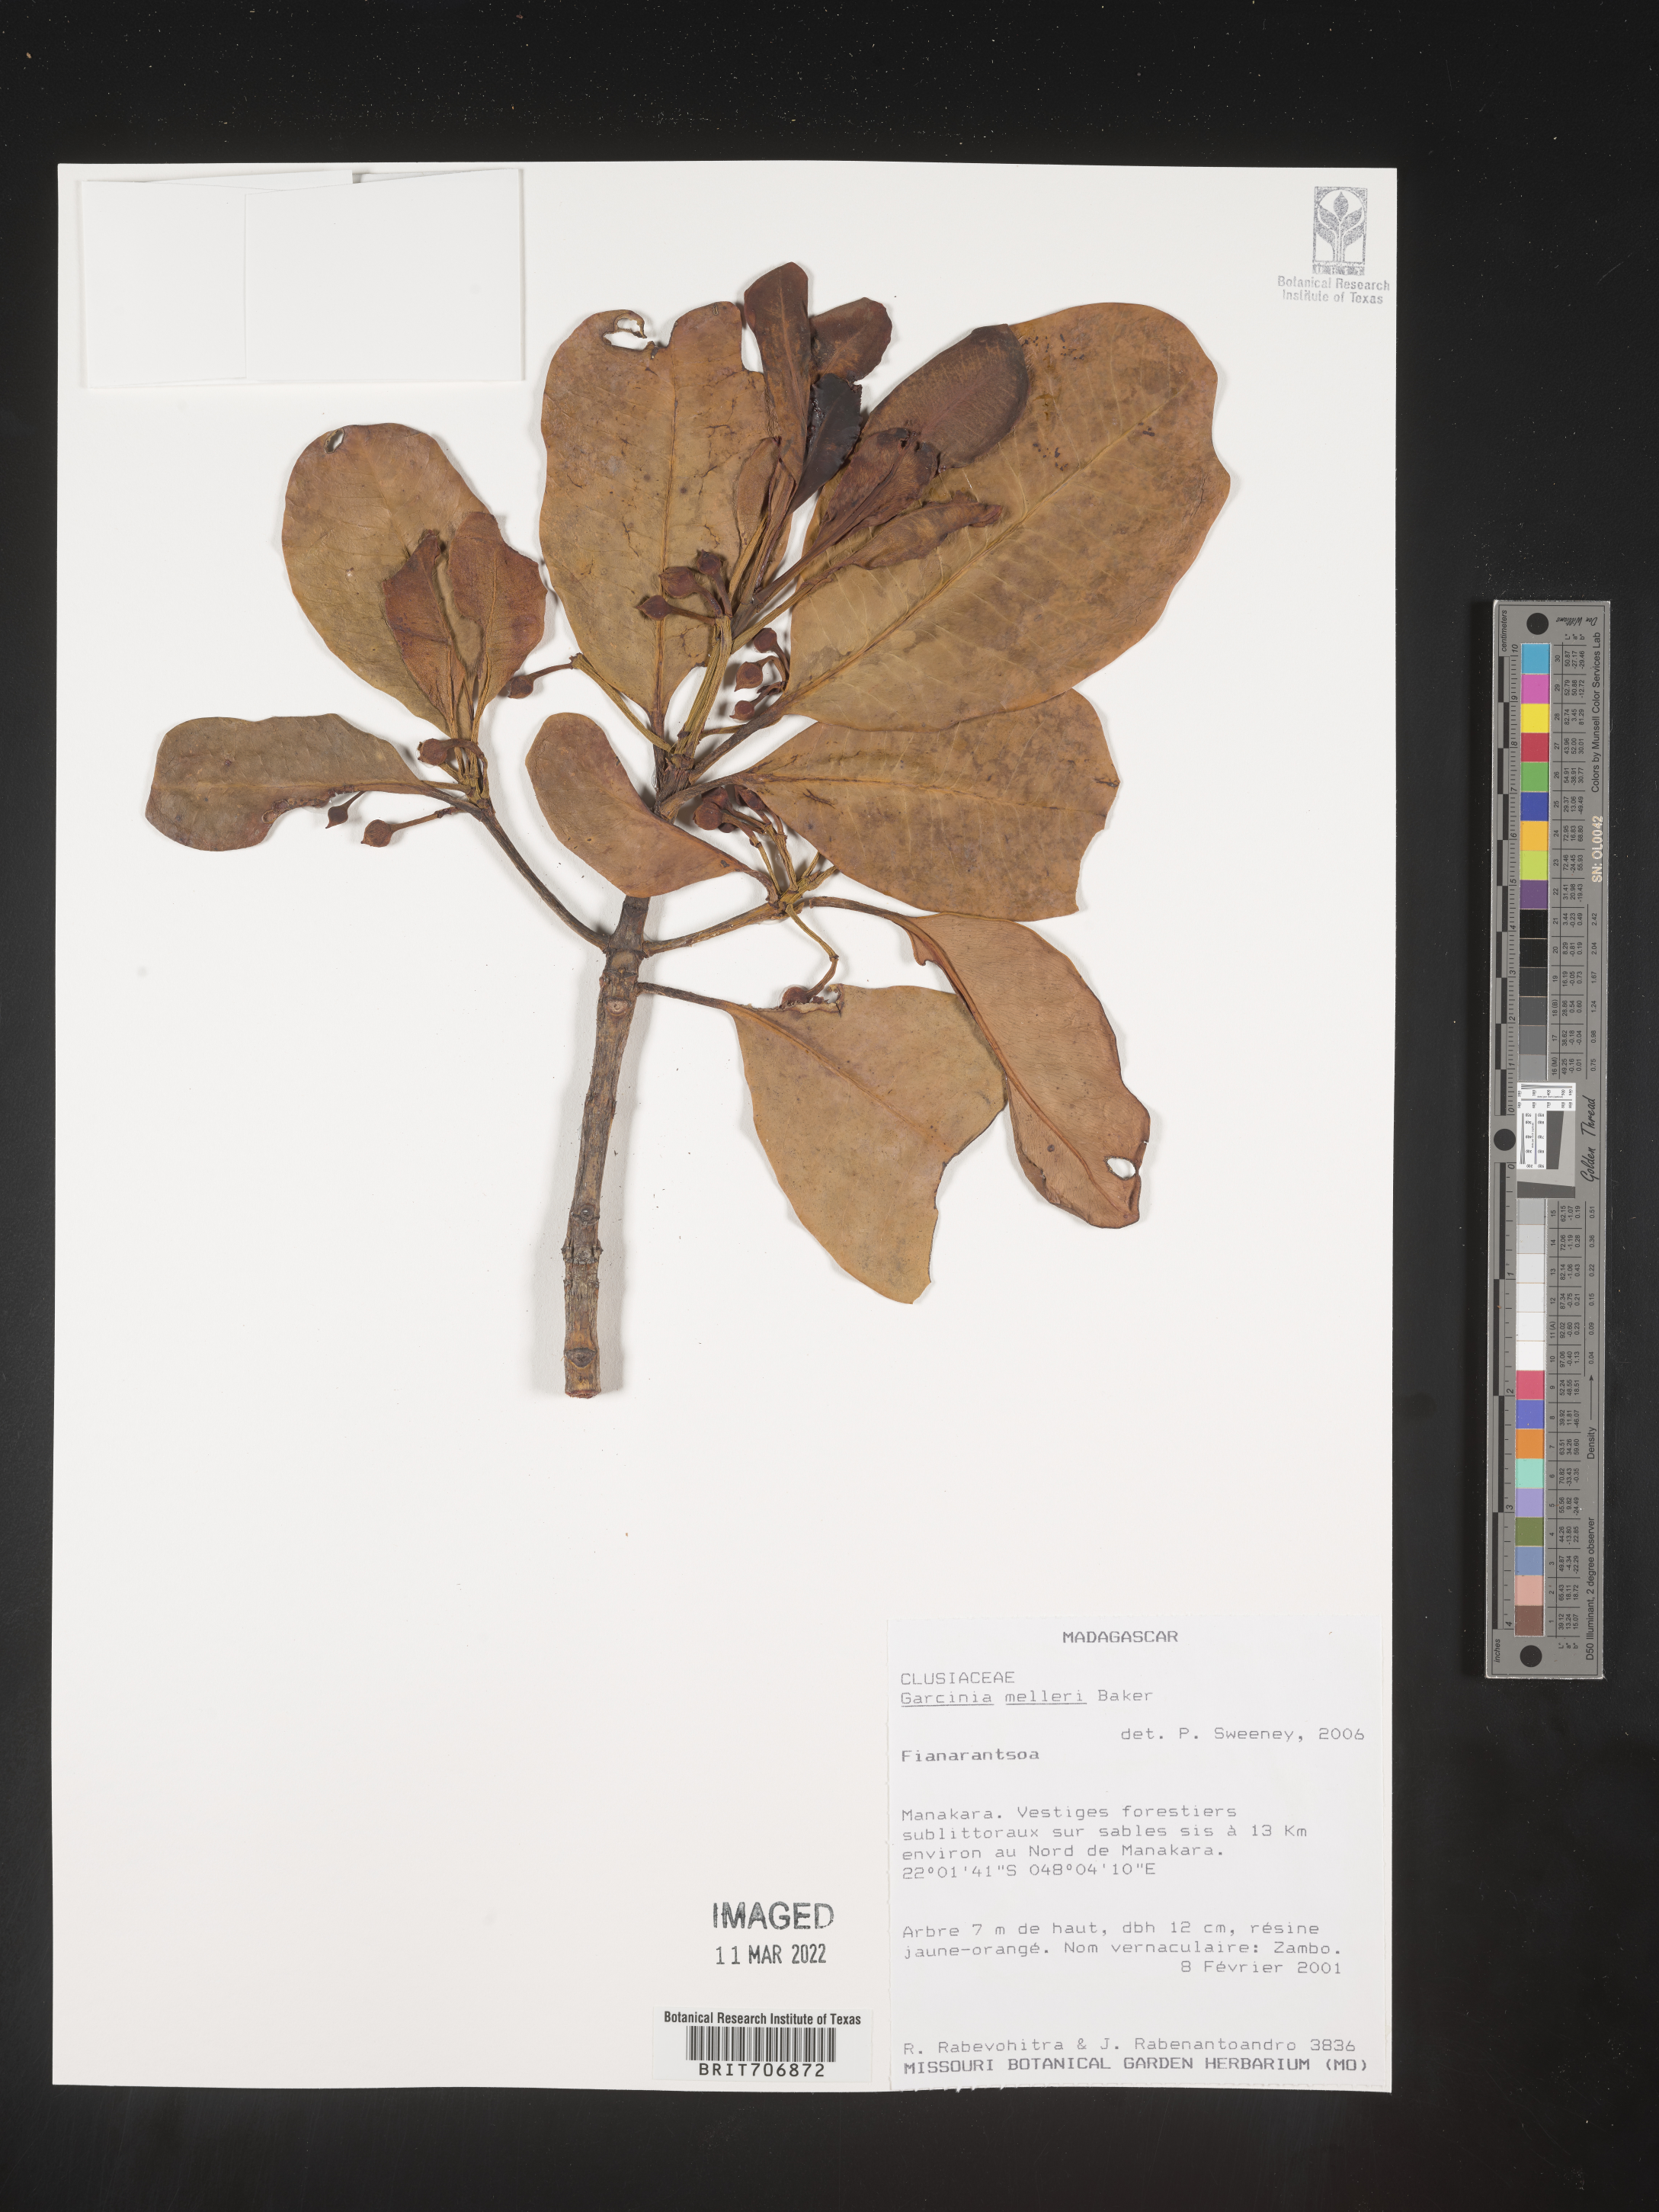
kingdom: Plantae
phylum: Tracheophyta
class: Magnoliopsida
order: Malpighiales
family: Clusiaceae
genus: Garcinia
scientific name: Garcinia
